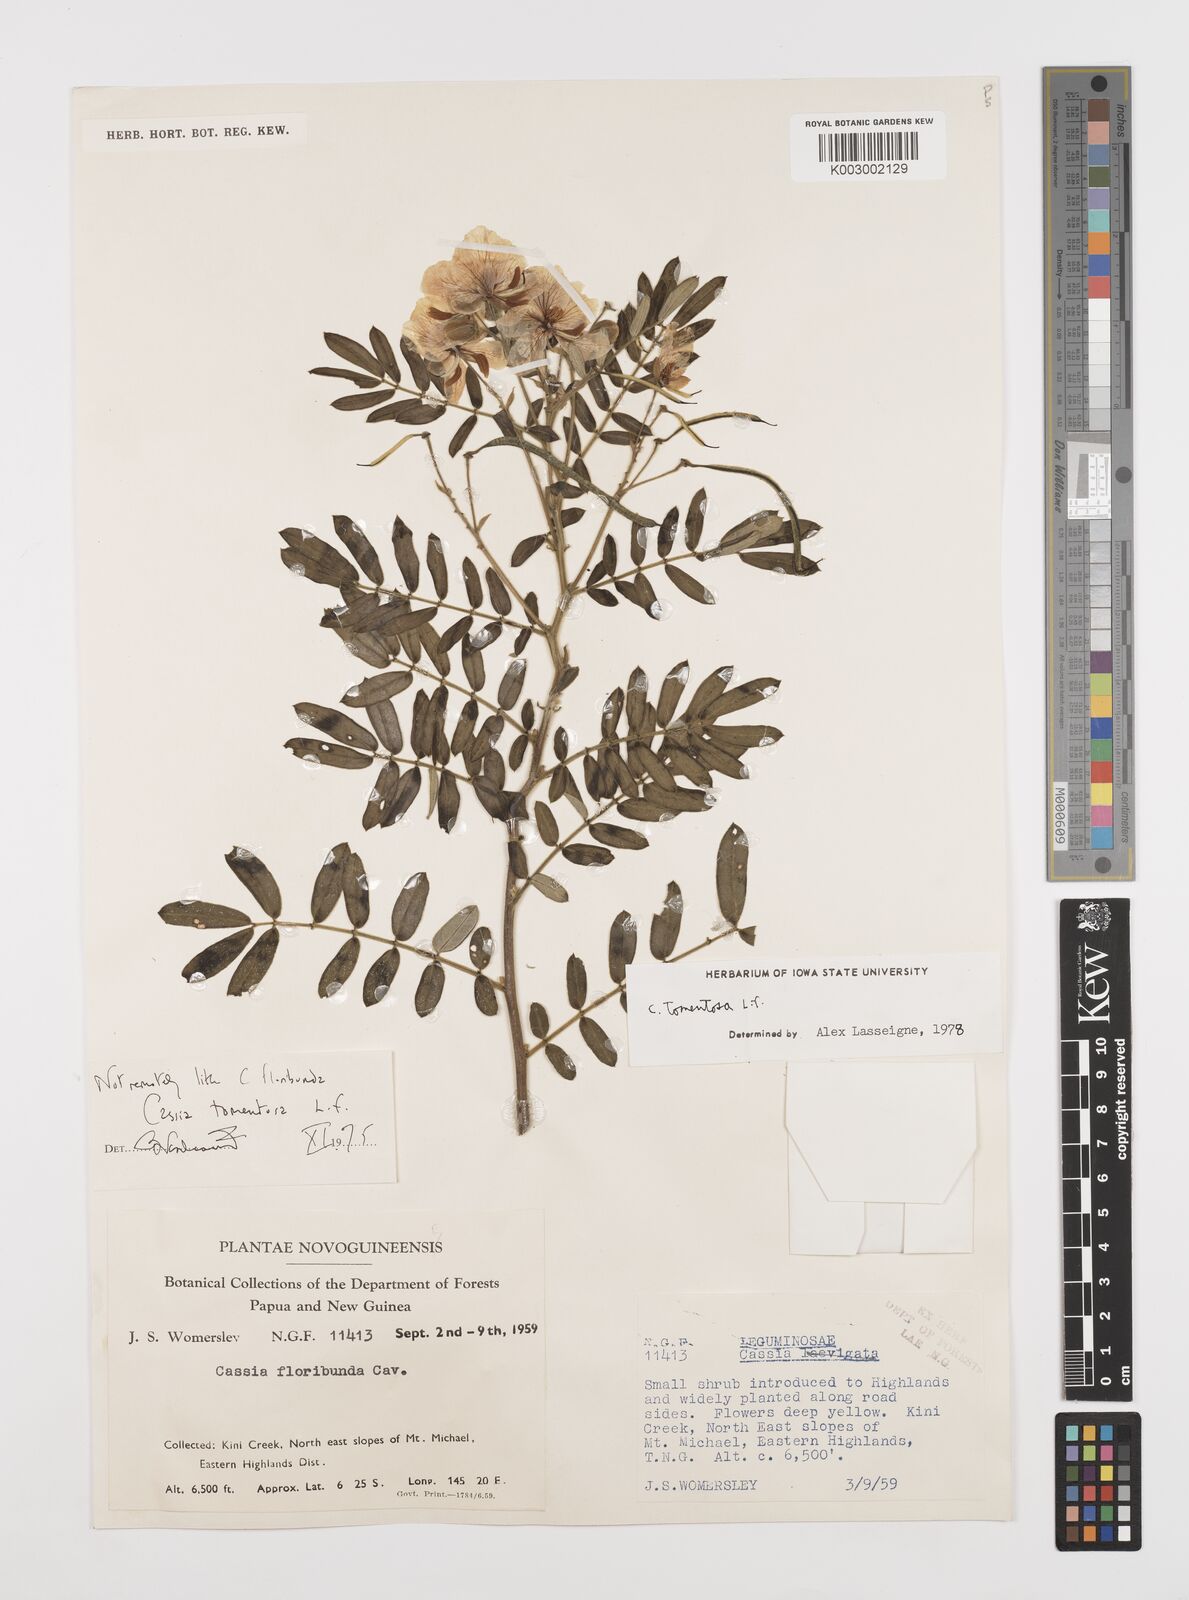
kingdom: Plantae
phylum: Tracheophyta
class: Magnoliopsida
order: Fabales
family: Fabaceae
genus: Senna
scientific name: Senna multiglandulosa
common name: Glandular senna
